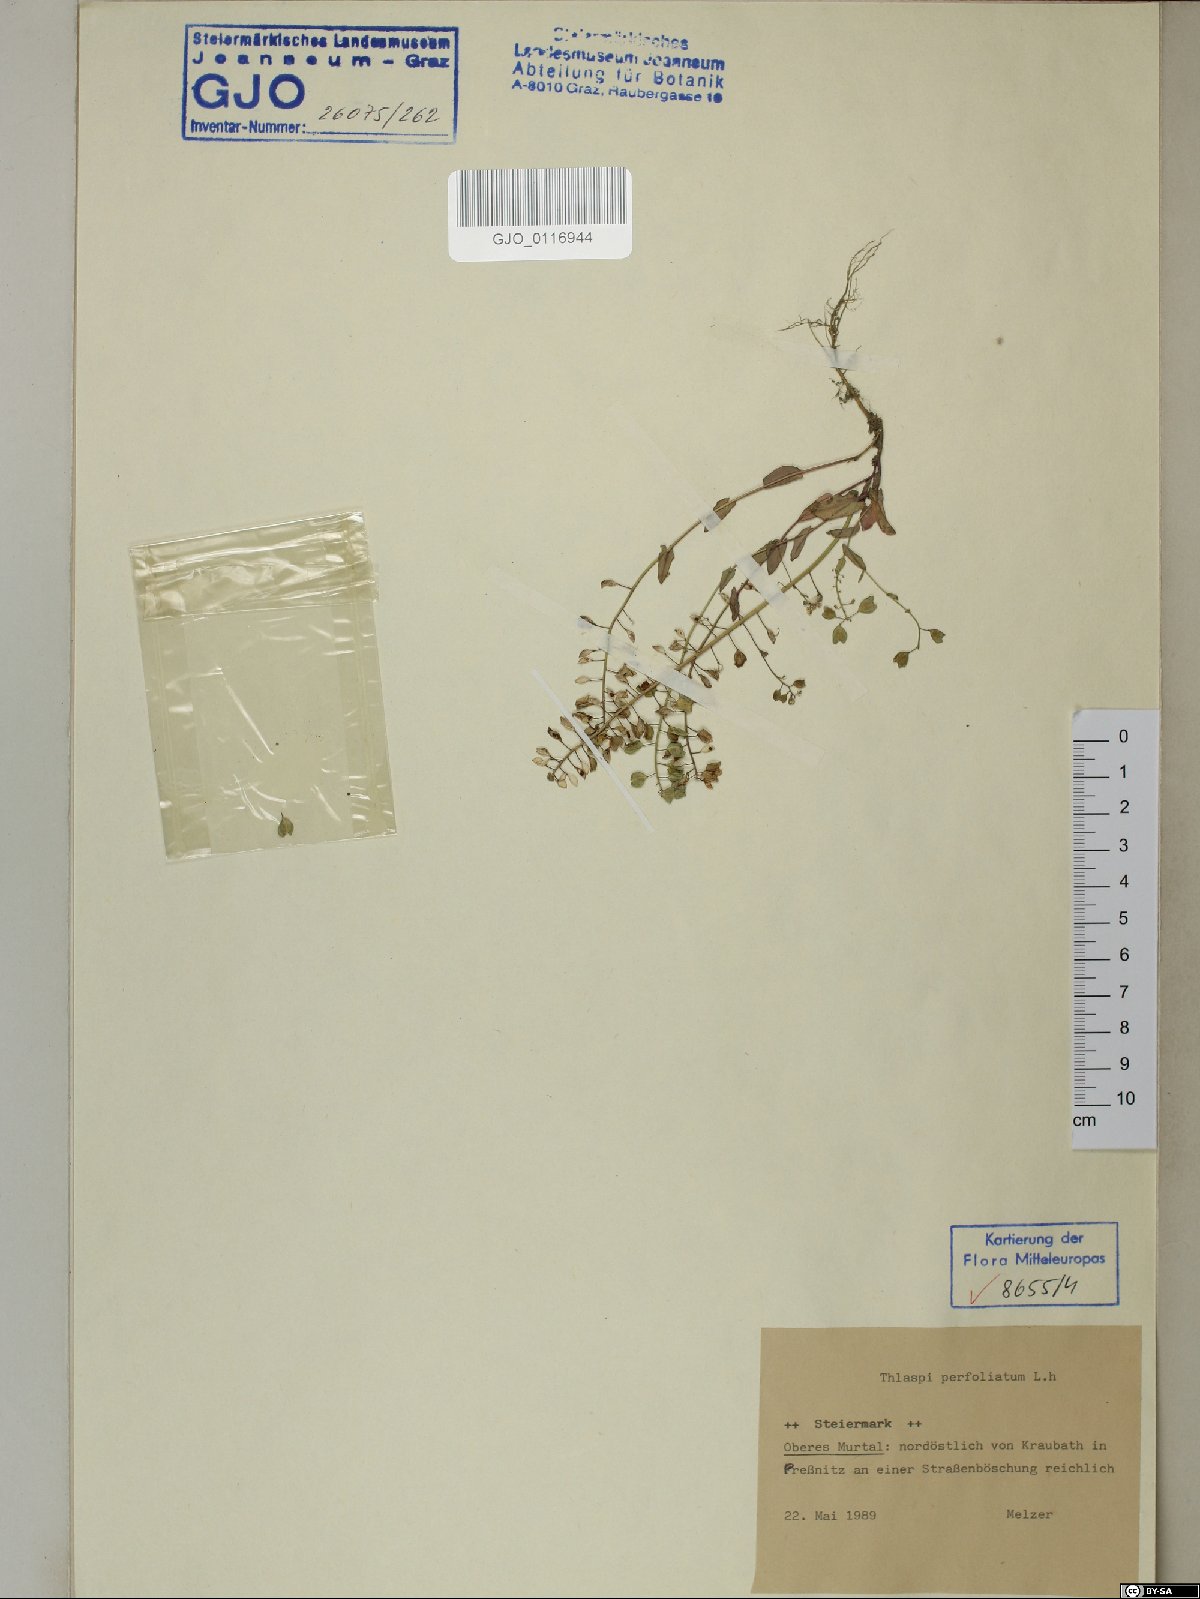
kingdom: Plantae
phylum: Tracheophyta
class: Magnoliopsida
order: Brassicales
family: Brassicaceae
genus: Noccaea
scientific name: Noccaea perfoliata
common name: Perfoliate pennycress
